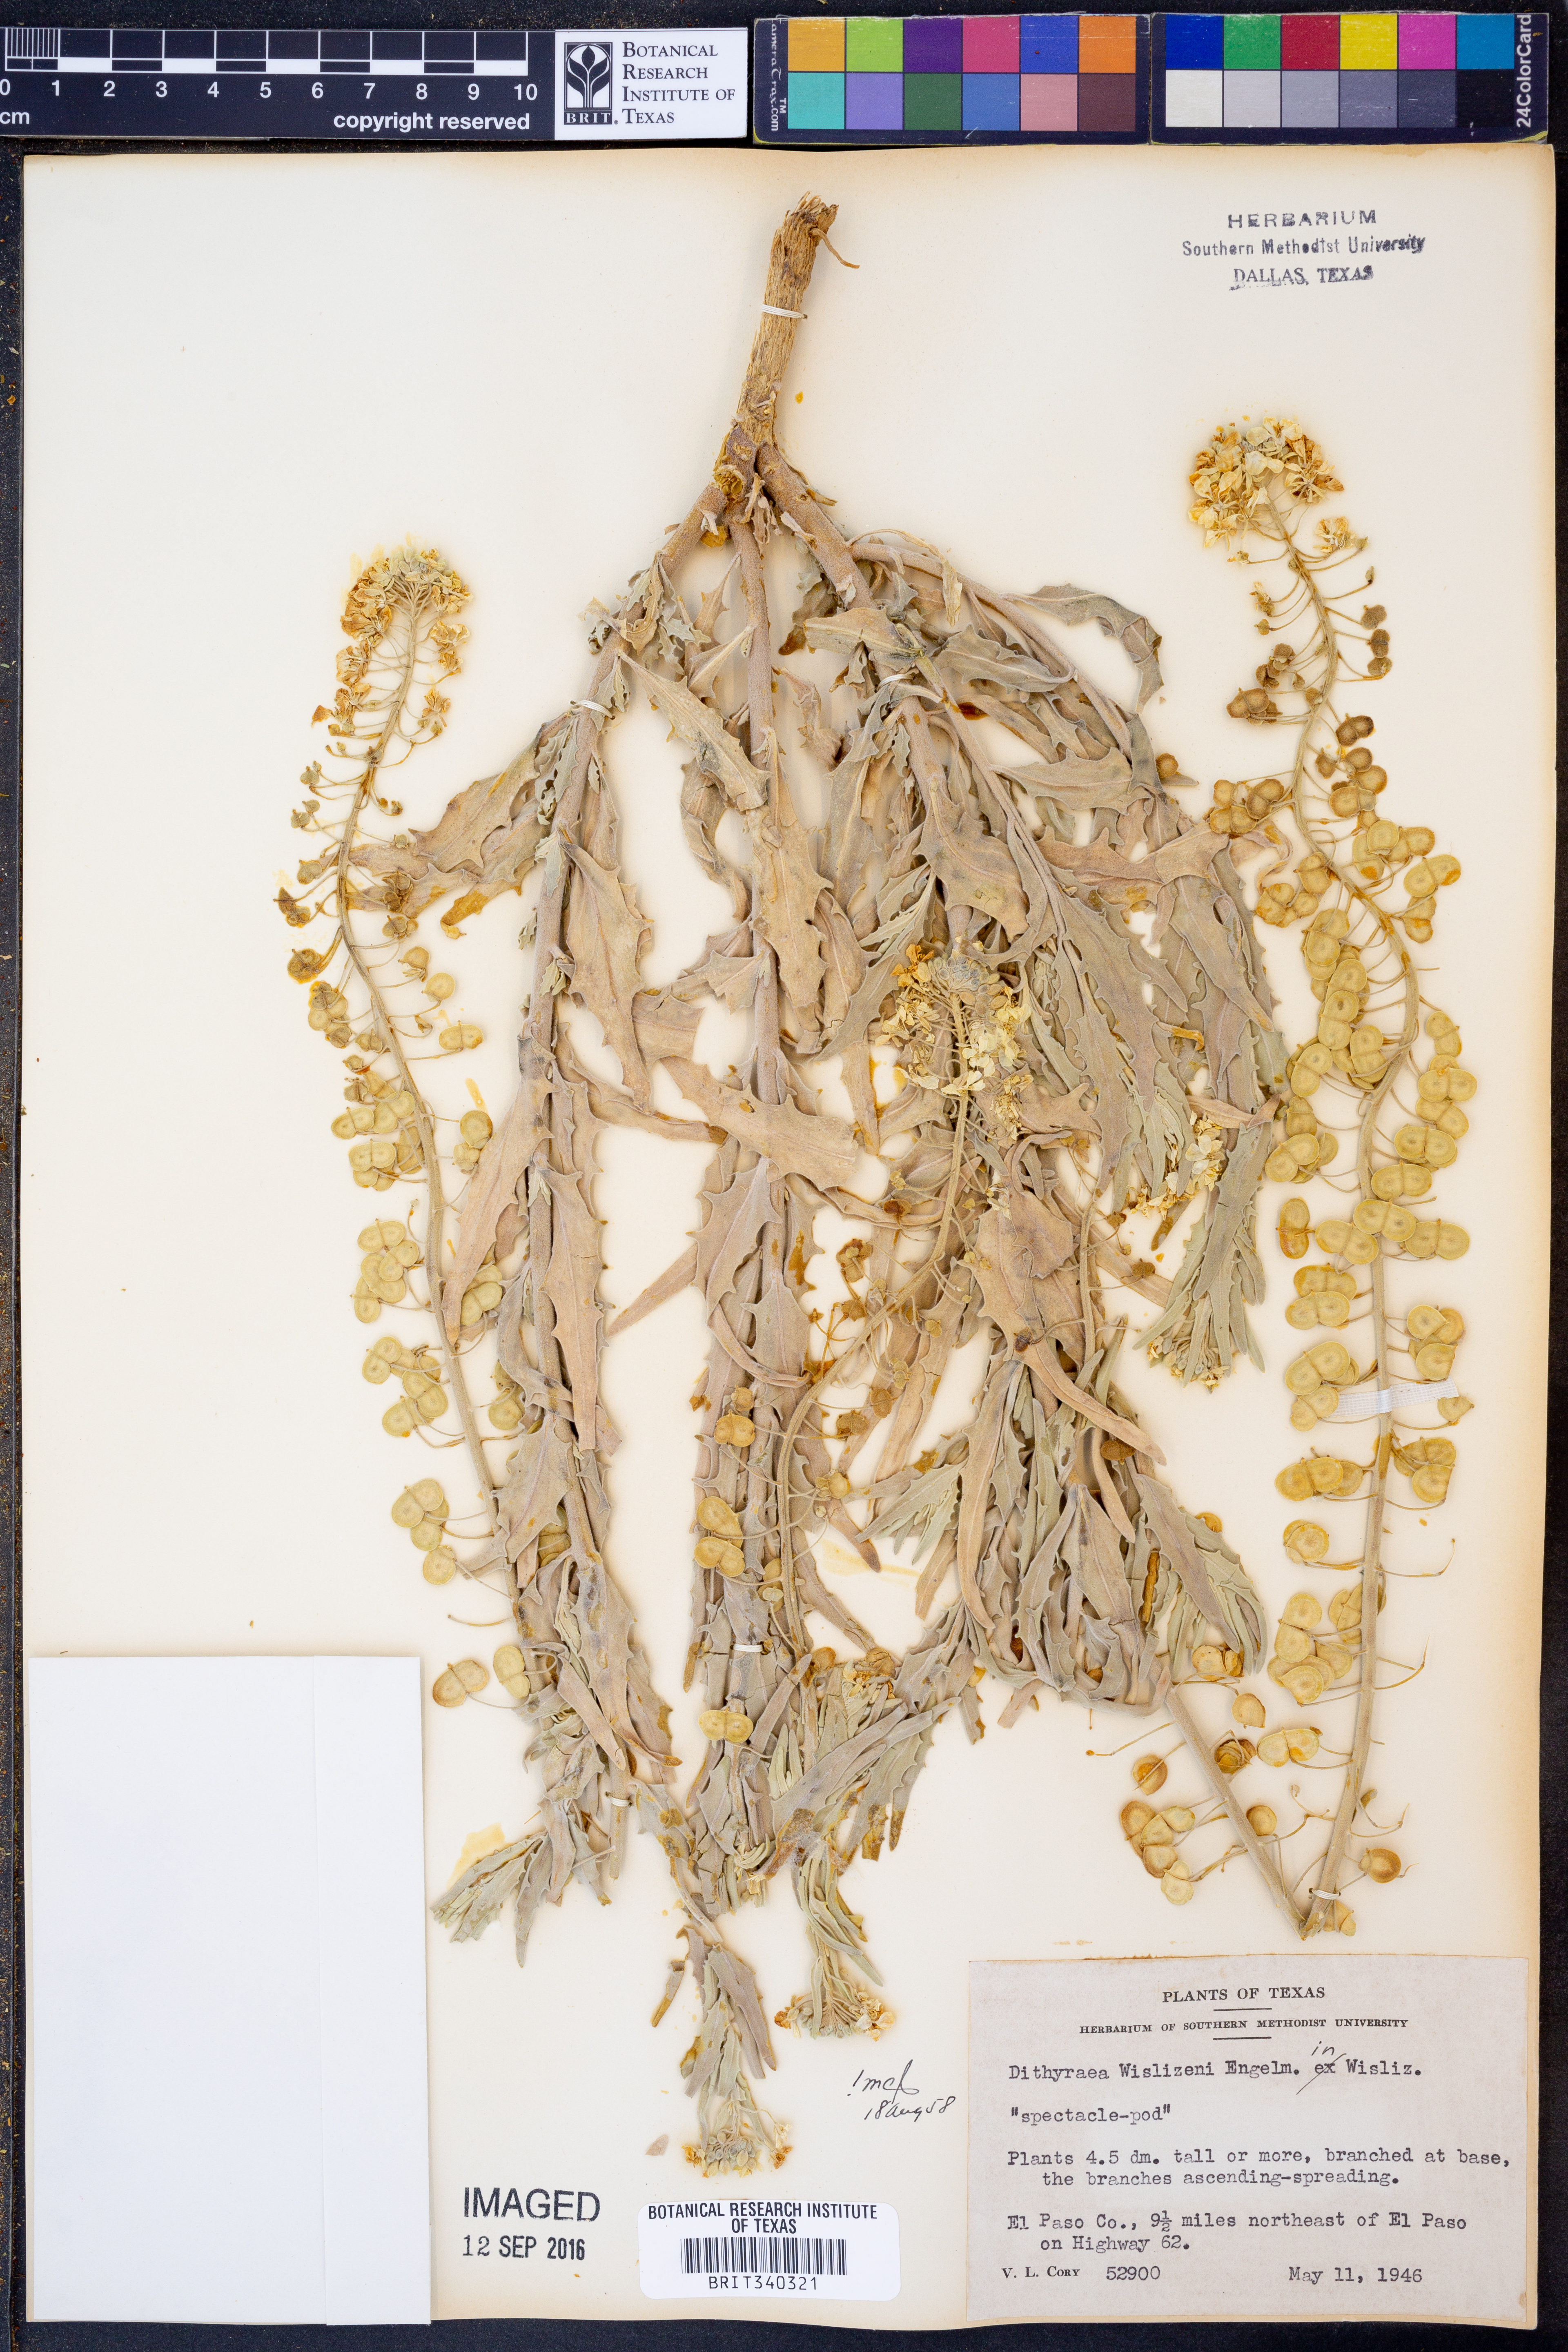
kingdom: Plantae
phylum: Tracheophyta
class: Magnoliopsida
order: Brassicales
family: Brassicaceae
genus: Dimorphocarpa
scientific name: Dimorphocarpa wislizenii
